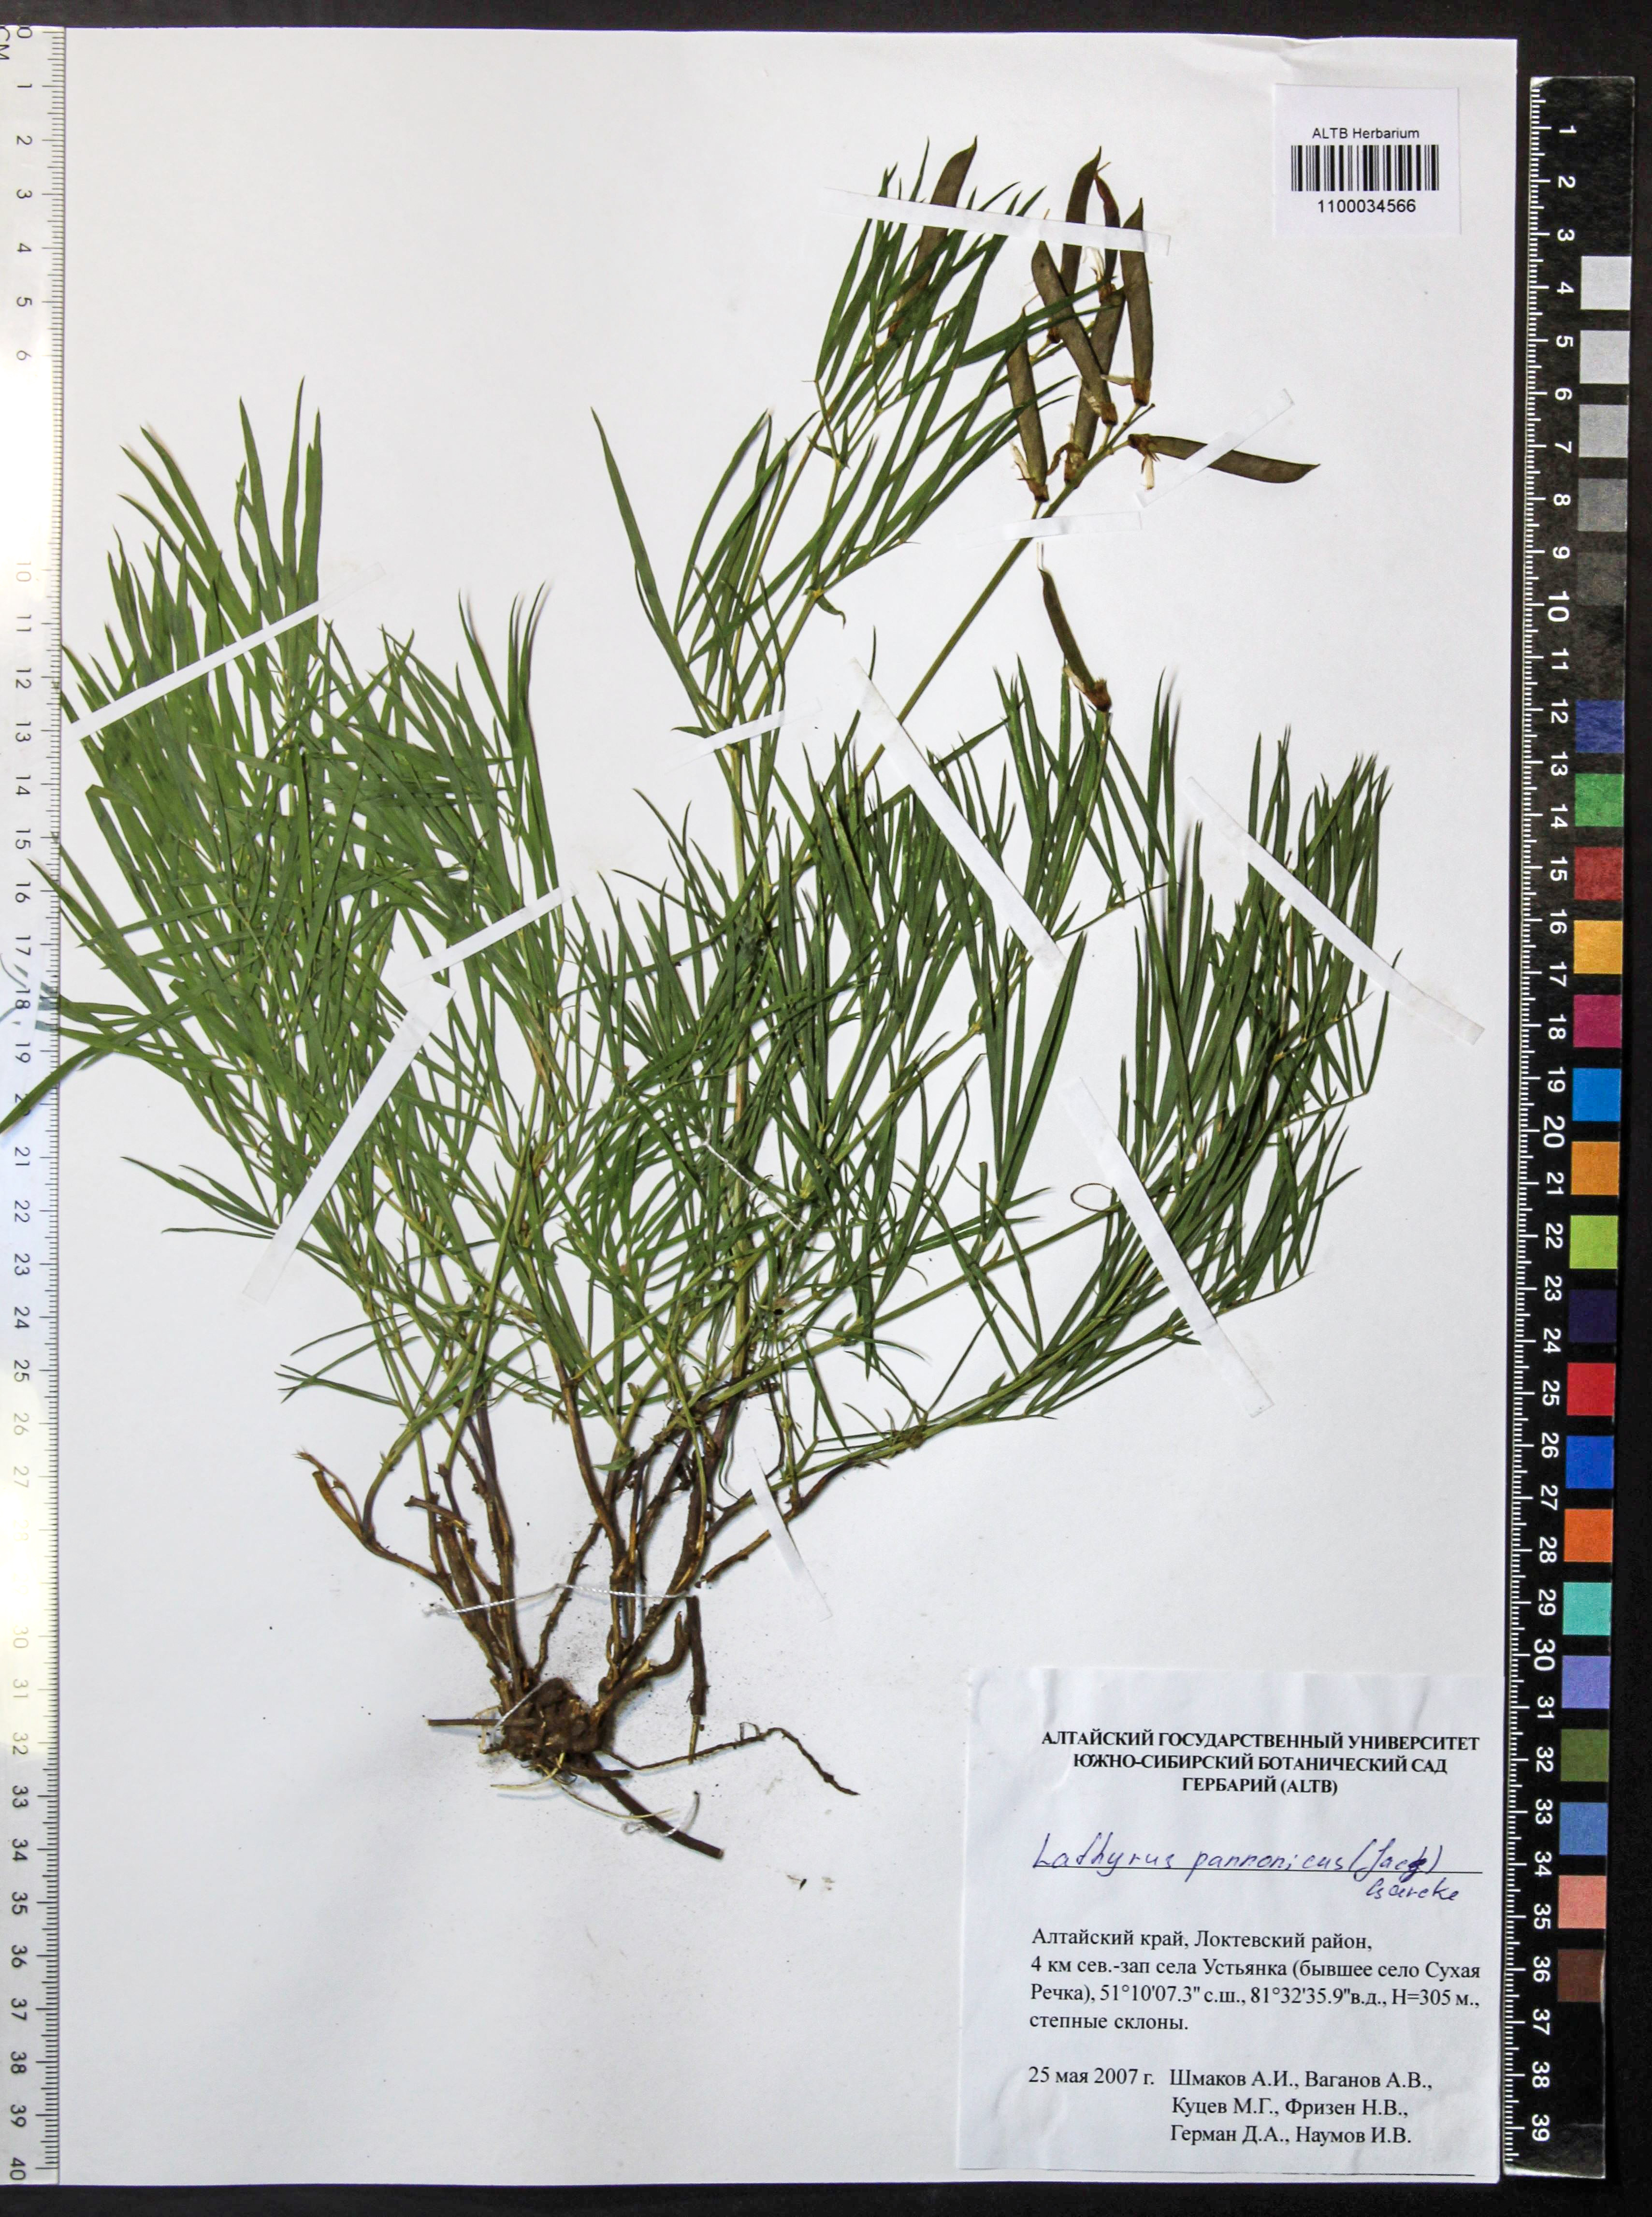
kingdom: Plantae
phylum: Tracheophyta
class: Magnoliopsida
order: Fabales
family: Fabaceae
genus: Lathyrus
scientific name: Lathyrus pannonicus
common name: Pea
